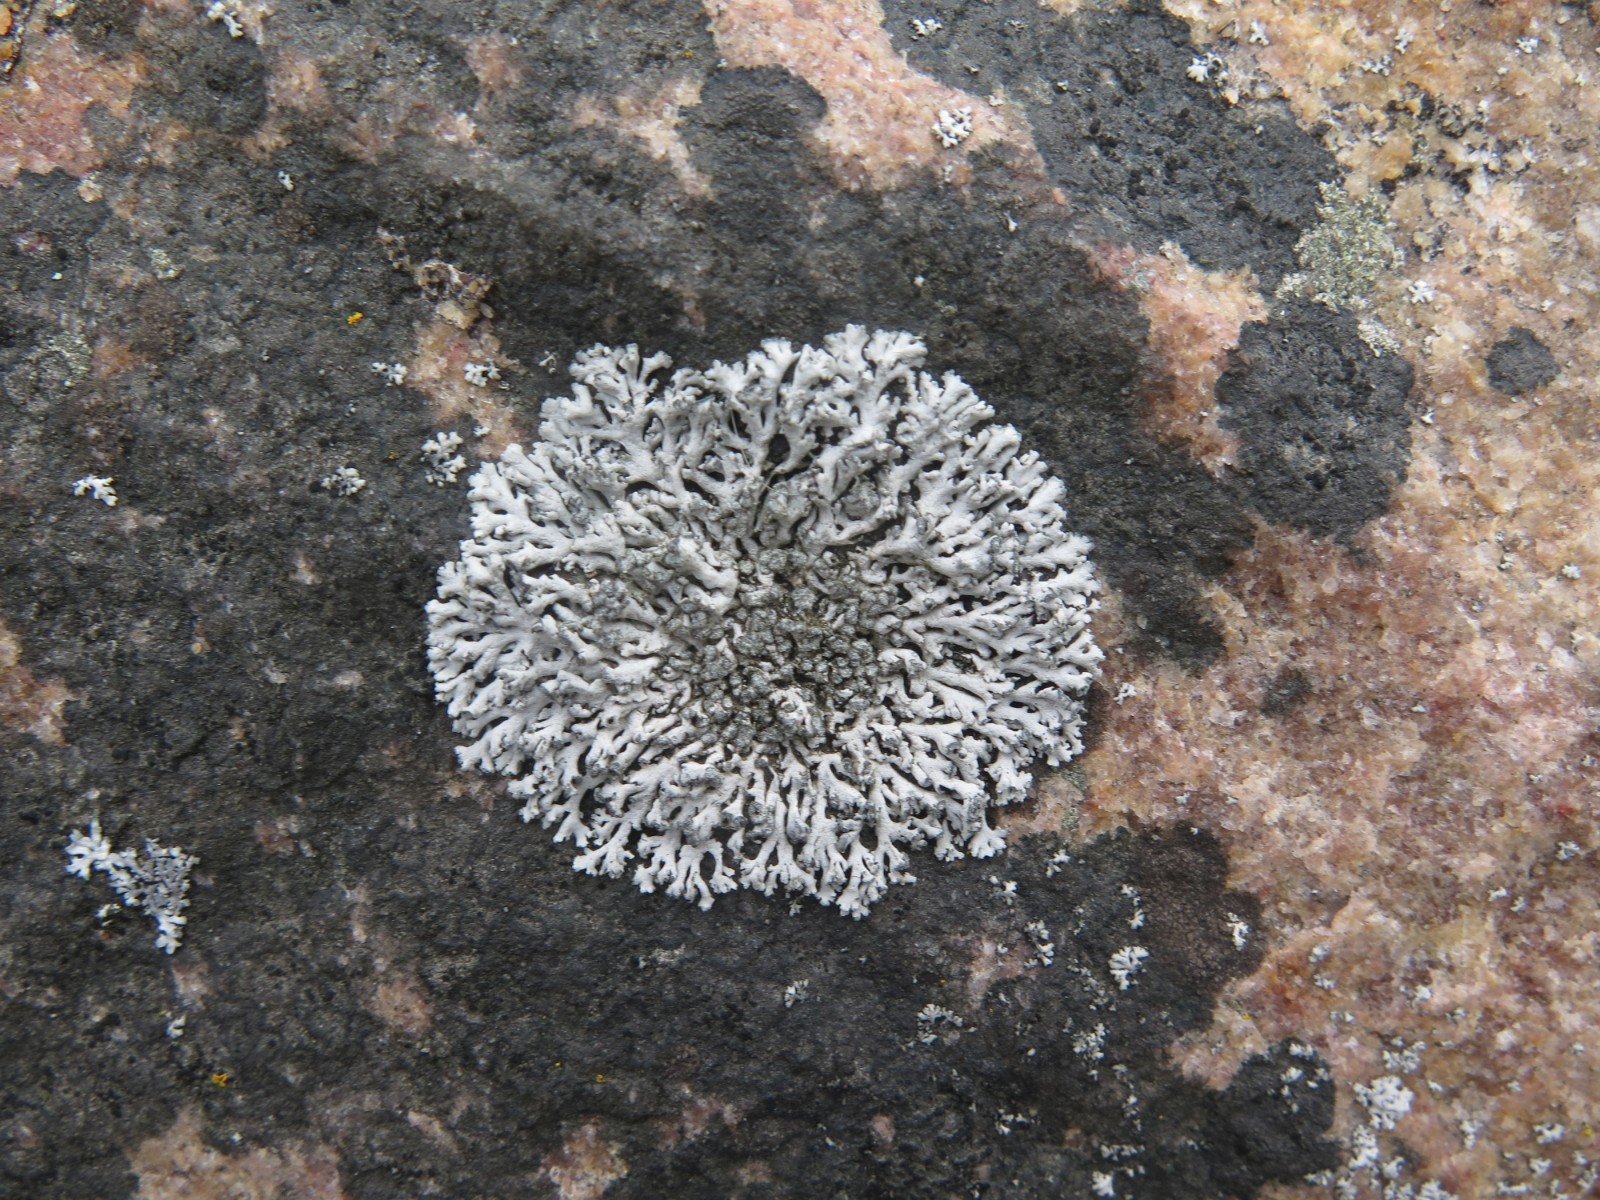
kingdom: Fungi
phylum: Ascomycota
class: Lecanoromycetes
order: Caliciales
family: Physciaceae
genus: Physcia
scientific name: Physcia dubia
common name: fuglestens-rosetlav
